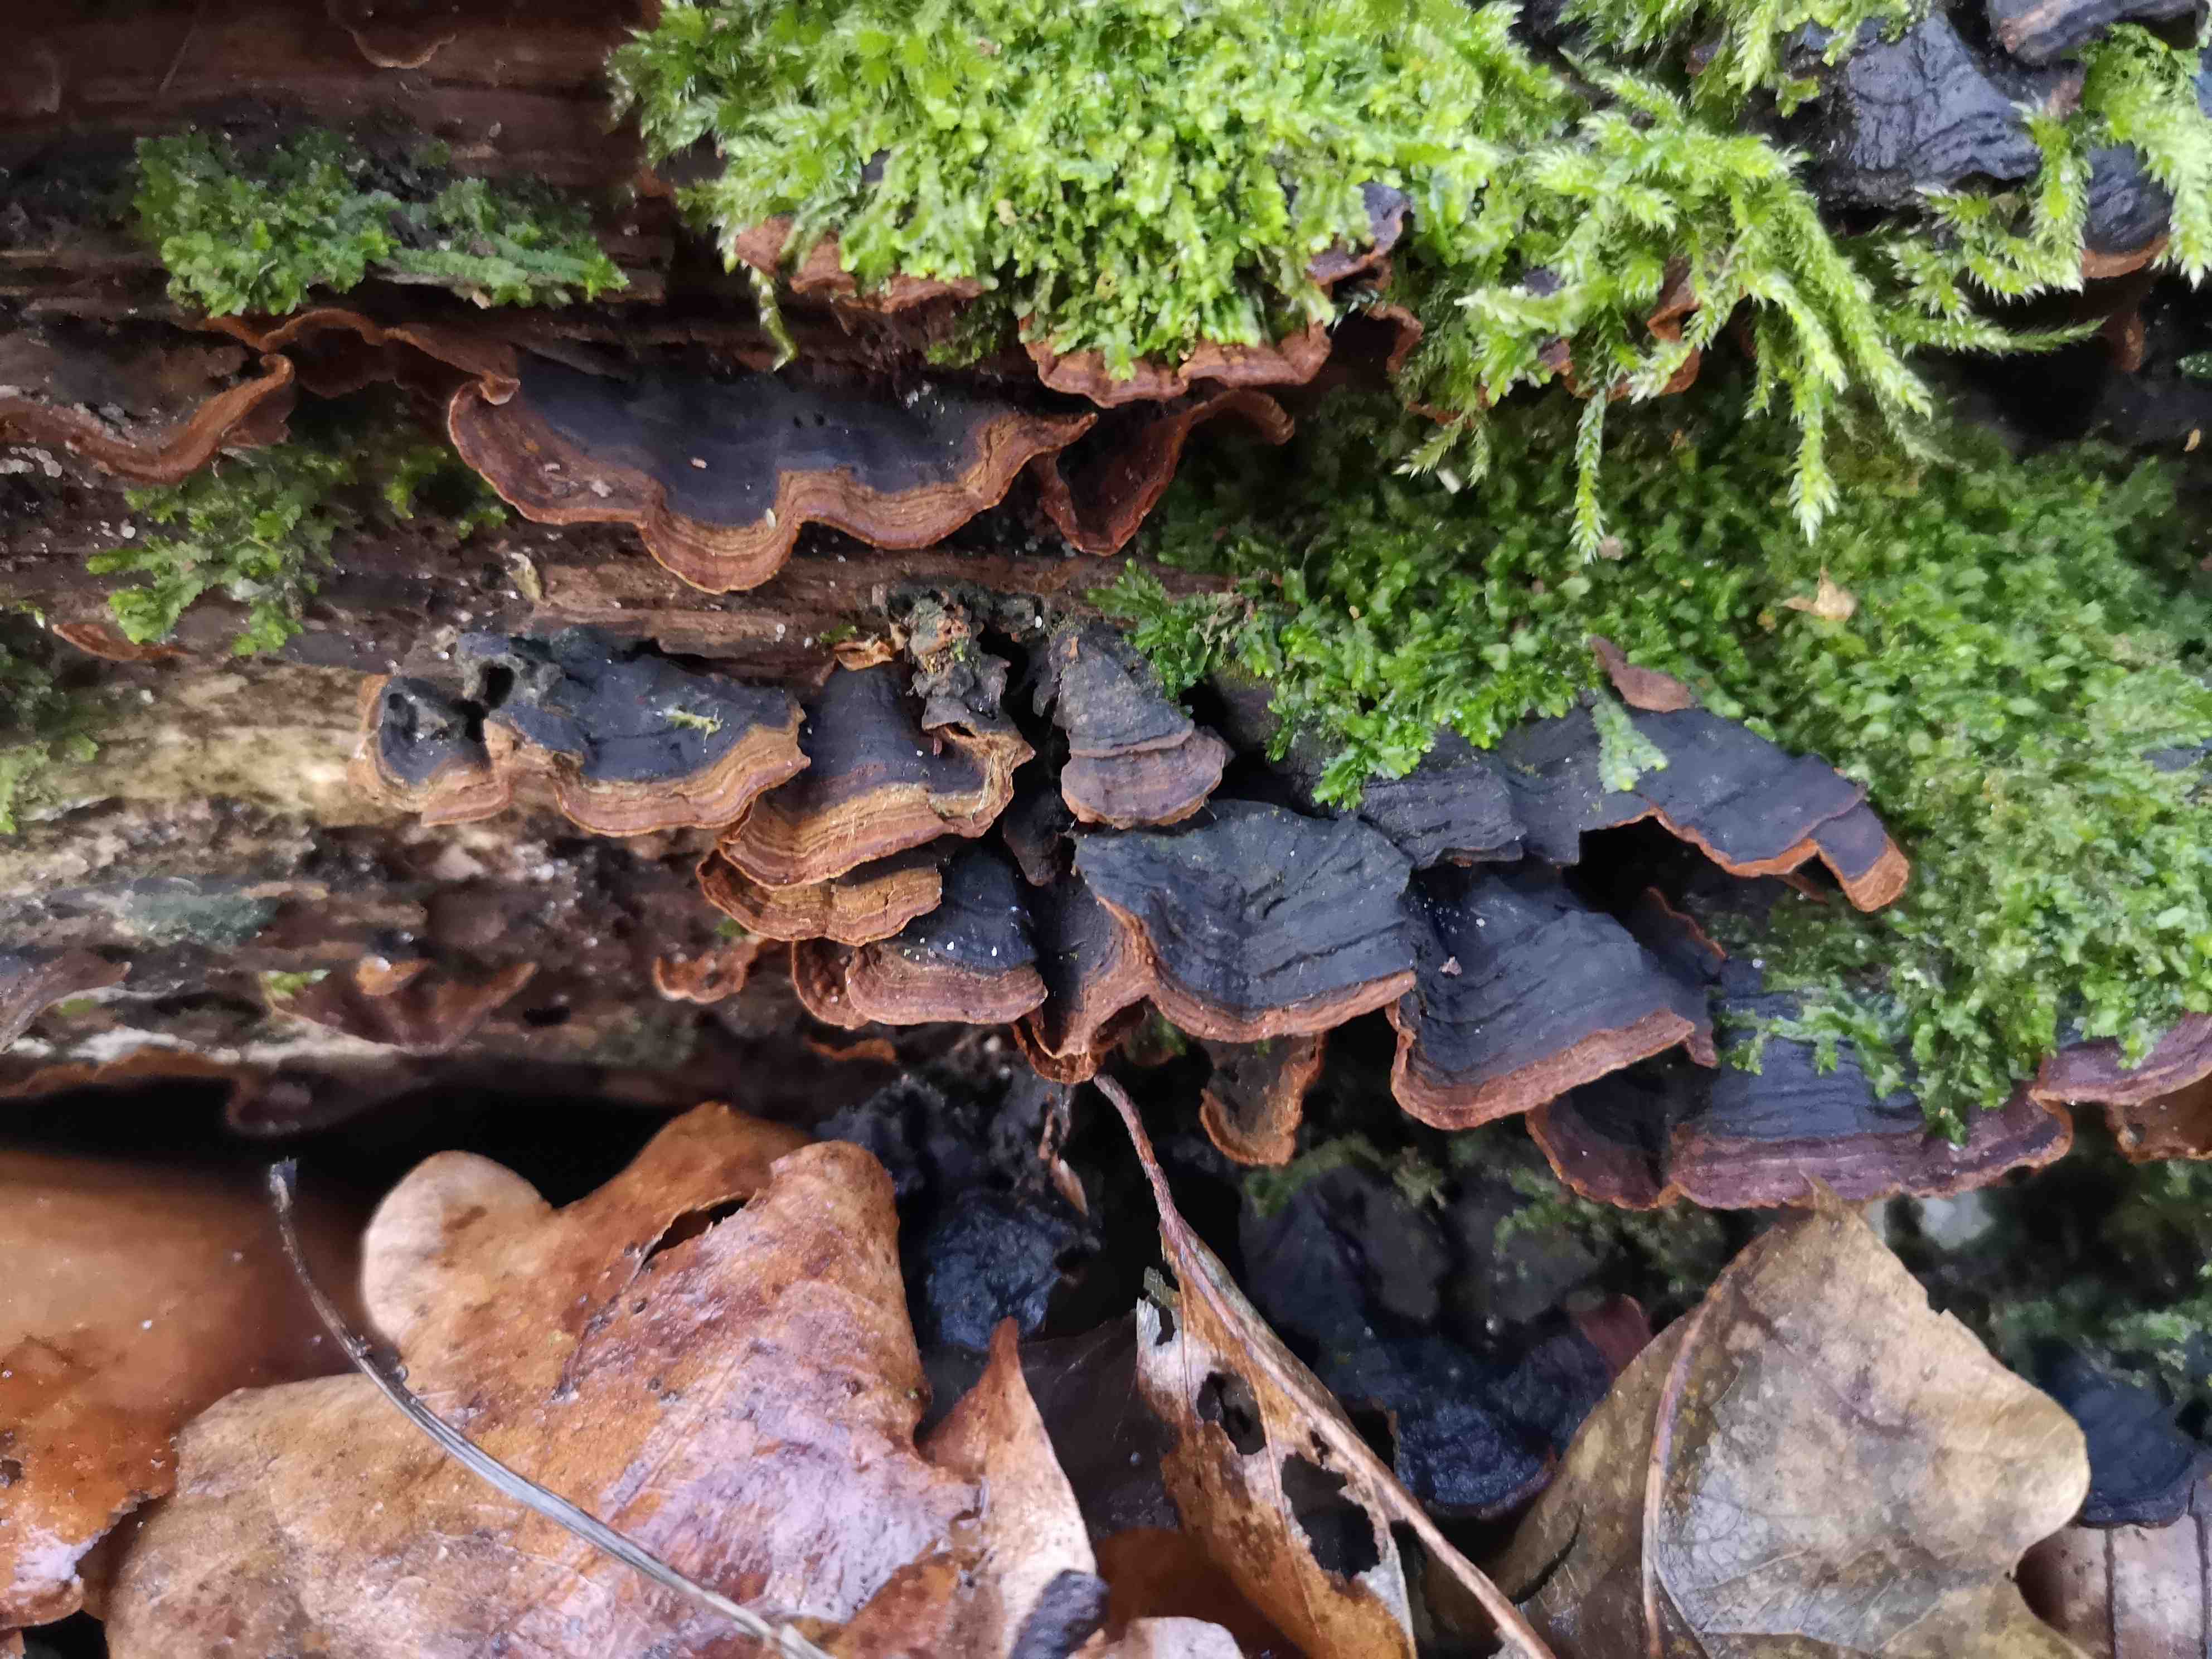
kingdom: Fungi
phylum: Basidiomycota
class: Agaricomycetes
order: Hymenochaetales
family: Hymenochaetaceae
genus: Hymenochaete
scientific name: Hymenochaete rubiginosa
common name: stiv ruslædersvamp
